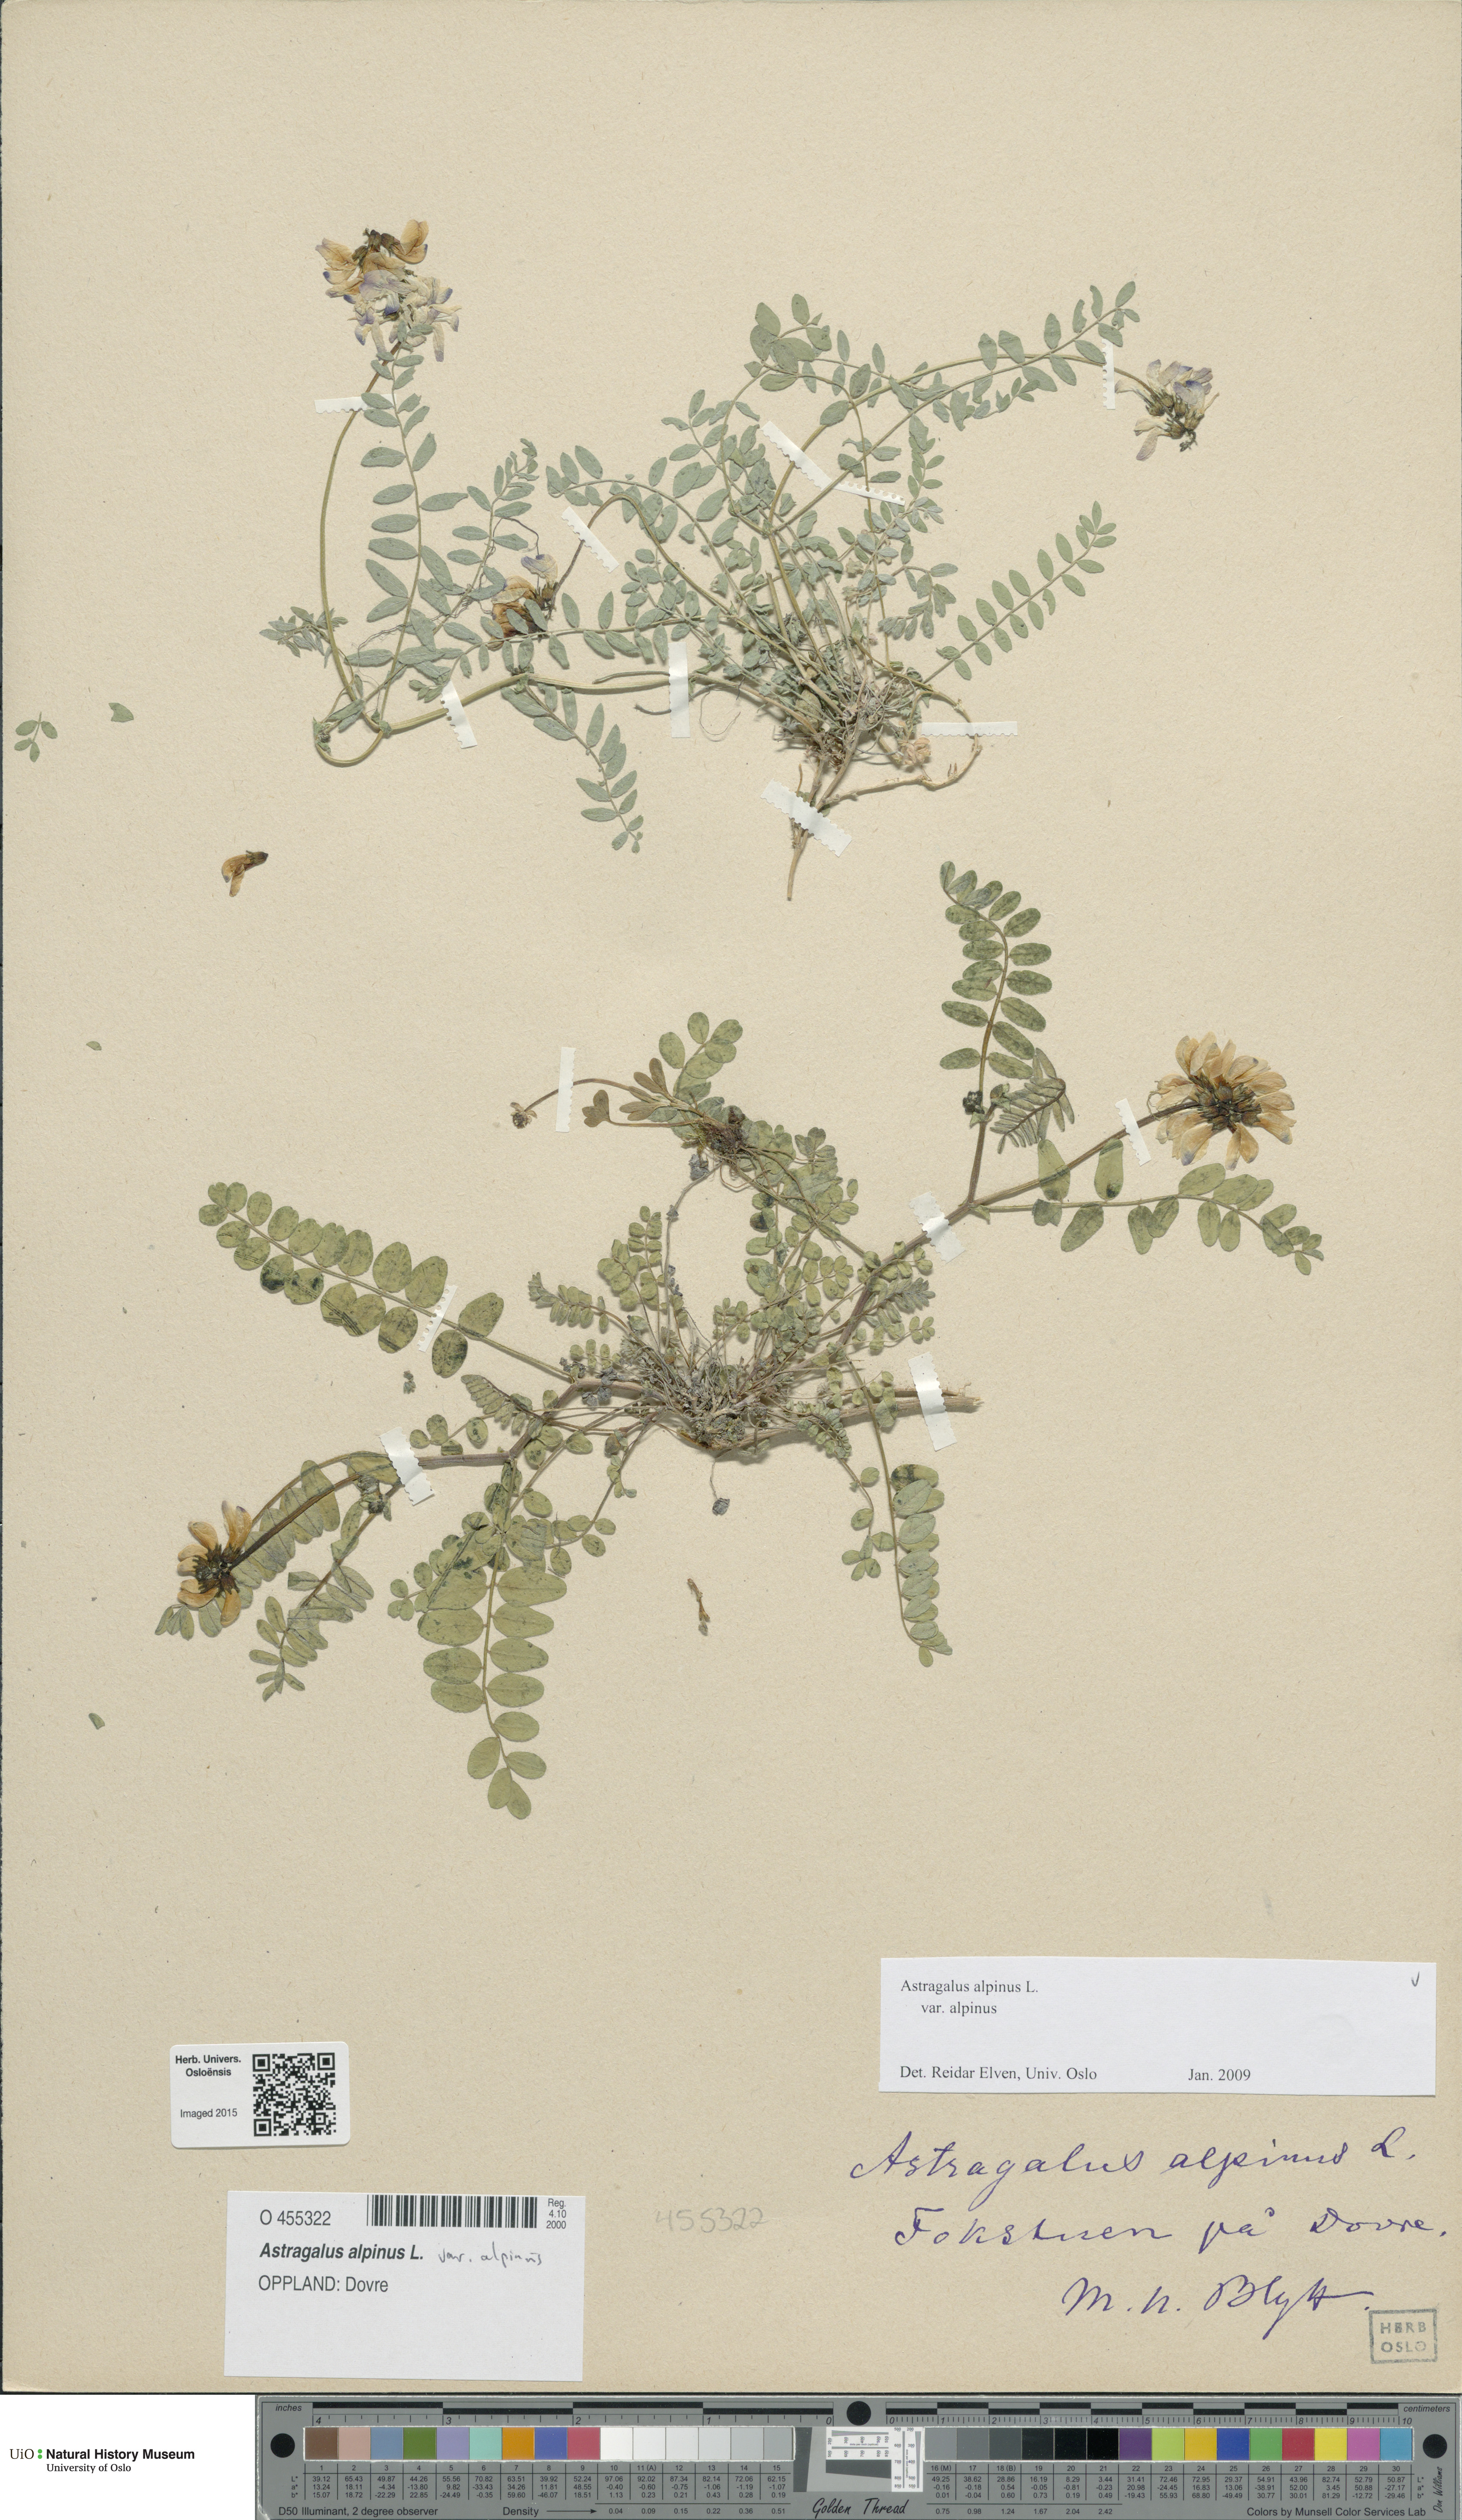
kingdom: Plantae
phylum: Tracheophyta
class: Magnoliopsida
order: Fabales
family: Fabaceae
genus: Astragalus
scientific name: Astragalus alpinus
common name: Alpine milk-vetch
